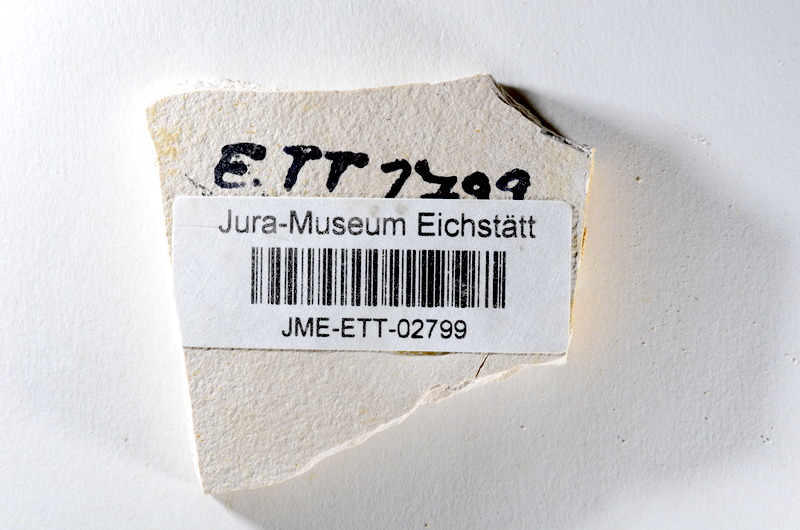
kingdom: Animalia
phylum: Chordata
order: Salmoniformes
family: Orthogonikleithridae
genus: Orthogonikleithrus
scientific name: Orthogonikleithrus hoelli
